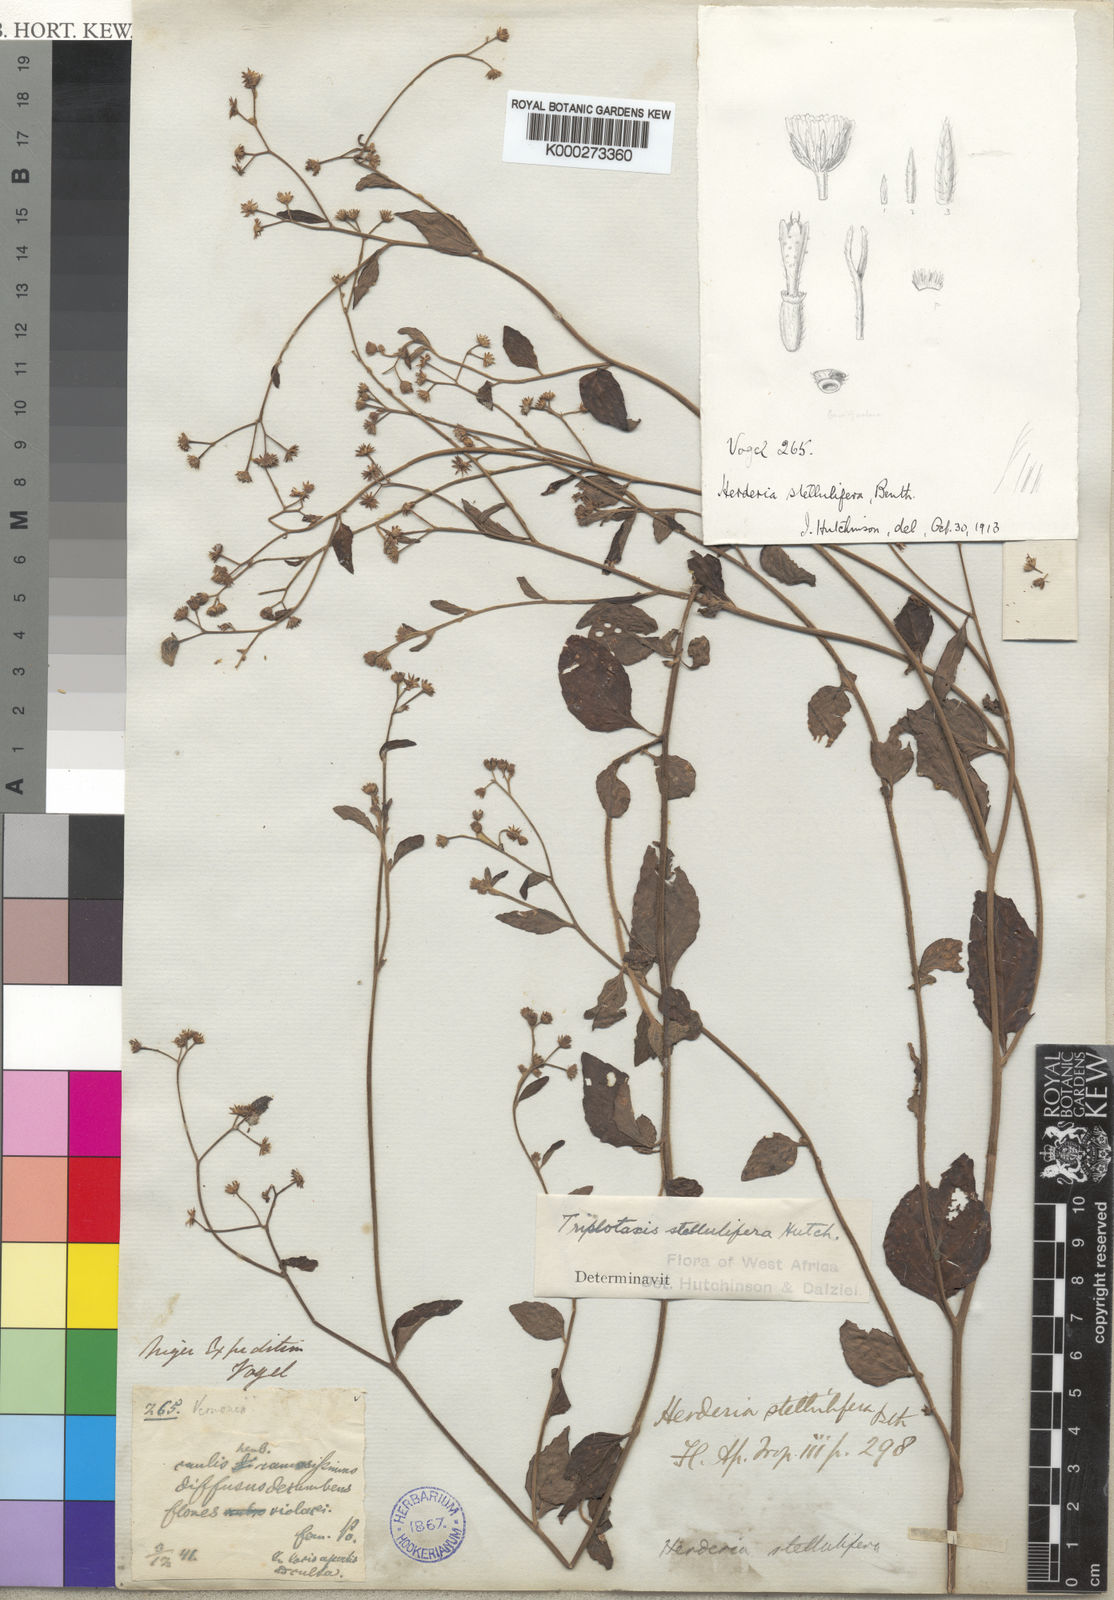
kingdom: Plantae
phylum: Tracheophyta
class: Magnoliopsida
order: Asterales
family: Asteraceae
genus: Cyanthillium
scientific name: Cyanthillium stelluliferum
